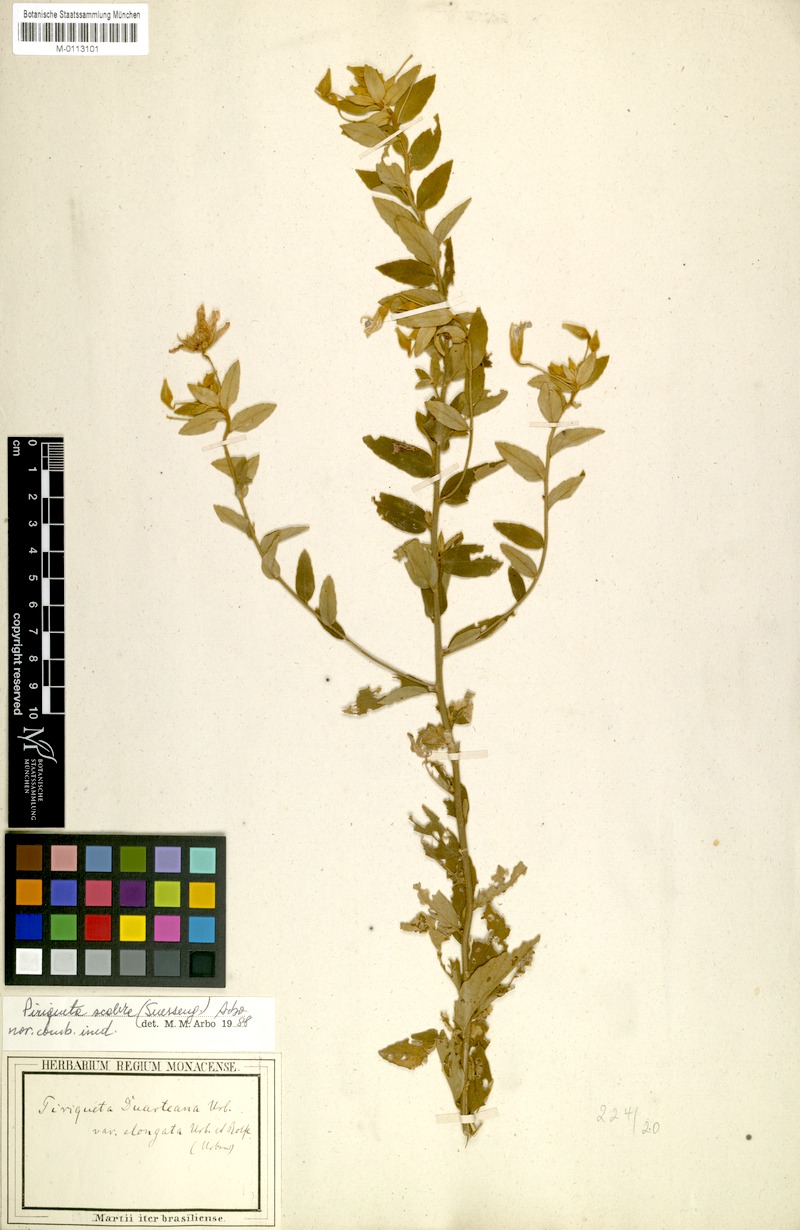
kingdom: Plantae
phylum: Tracheophyta
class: Magnoliopsida
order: Malpighiales
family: Turneraceae
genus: Piriqueta
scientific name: Piriqueta guianensis
